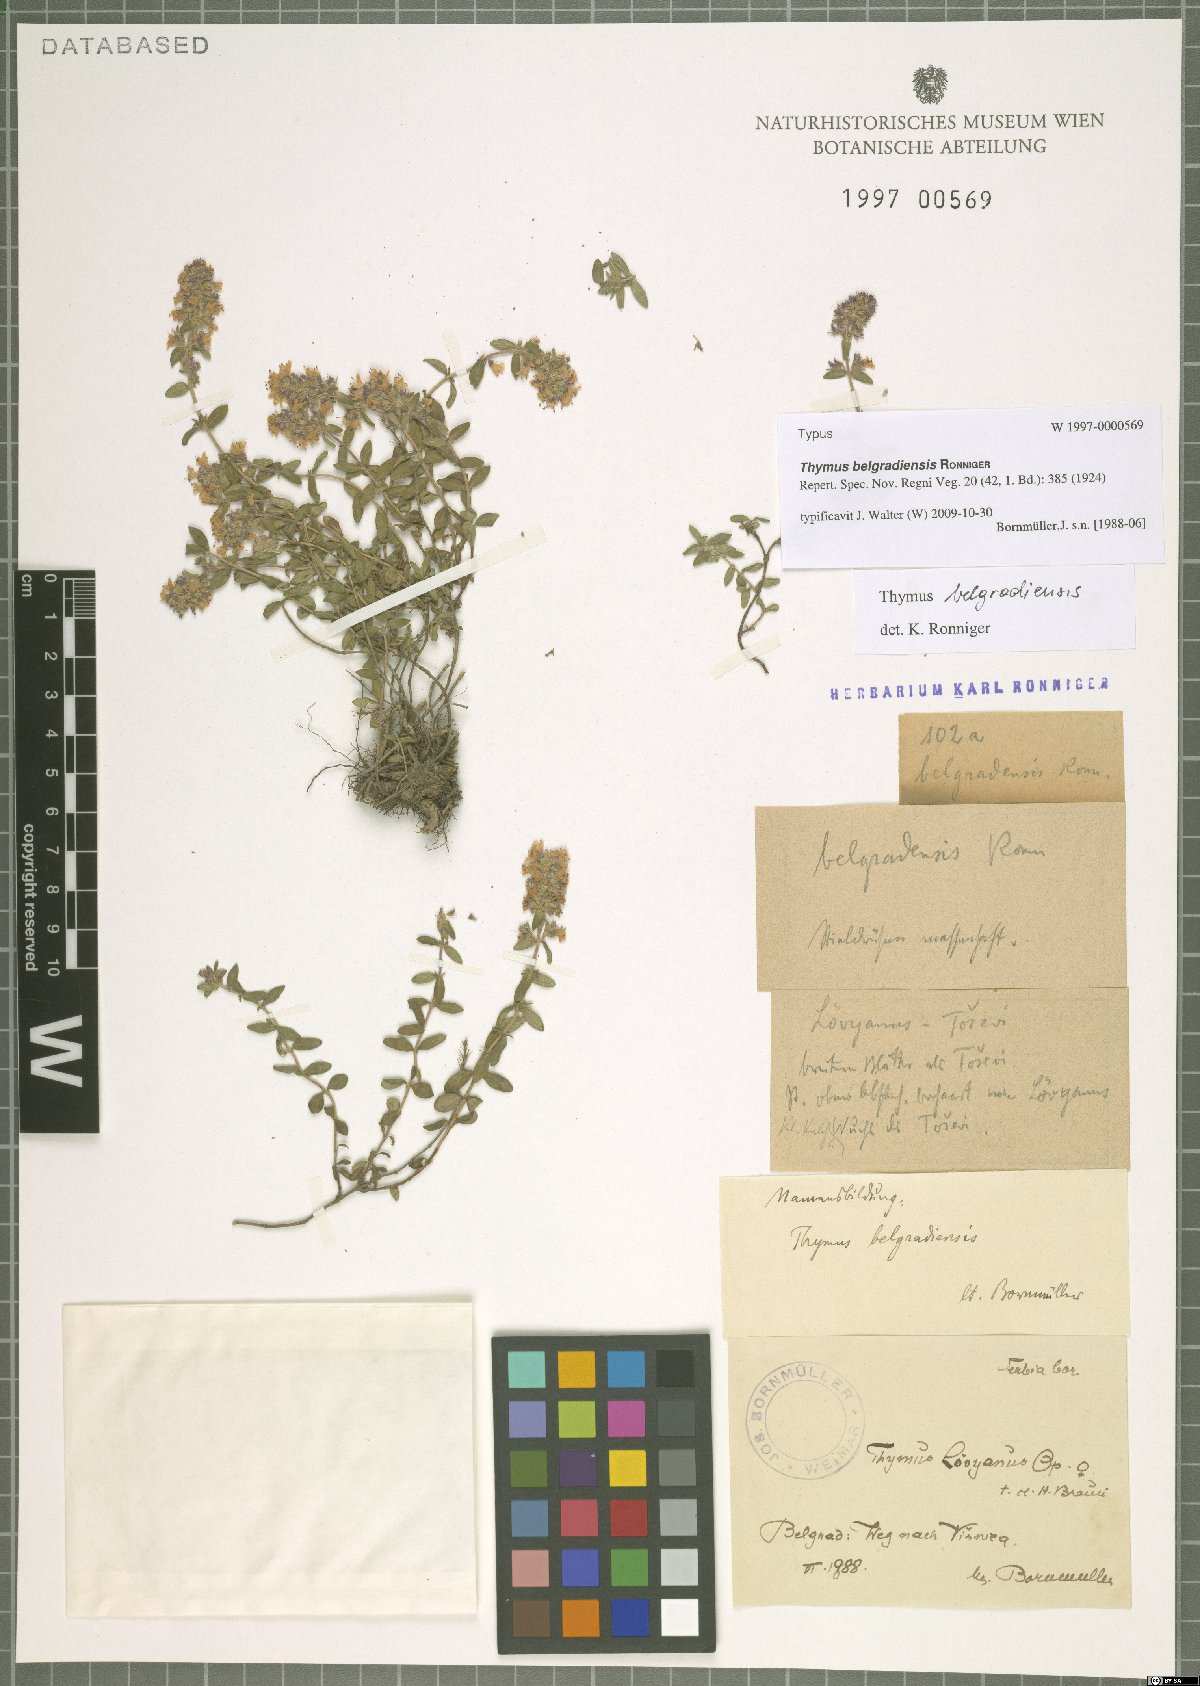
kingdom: Plantae
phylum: Tracheophyta
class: Magnoliopsida
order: Lamiales
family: Lamiaceae
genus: Thymus
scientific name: Thymus belgradiensis
